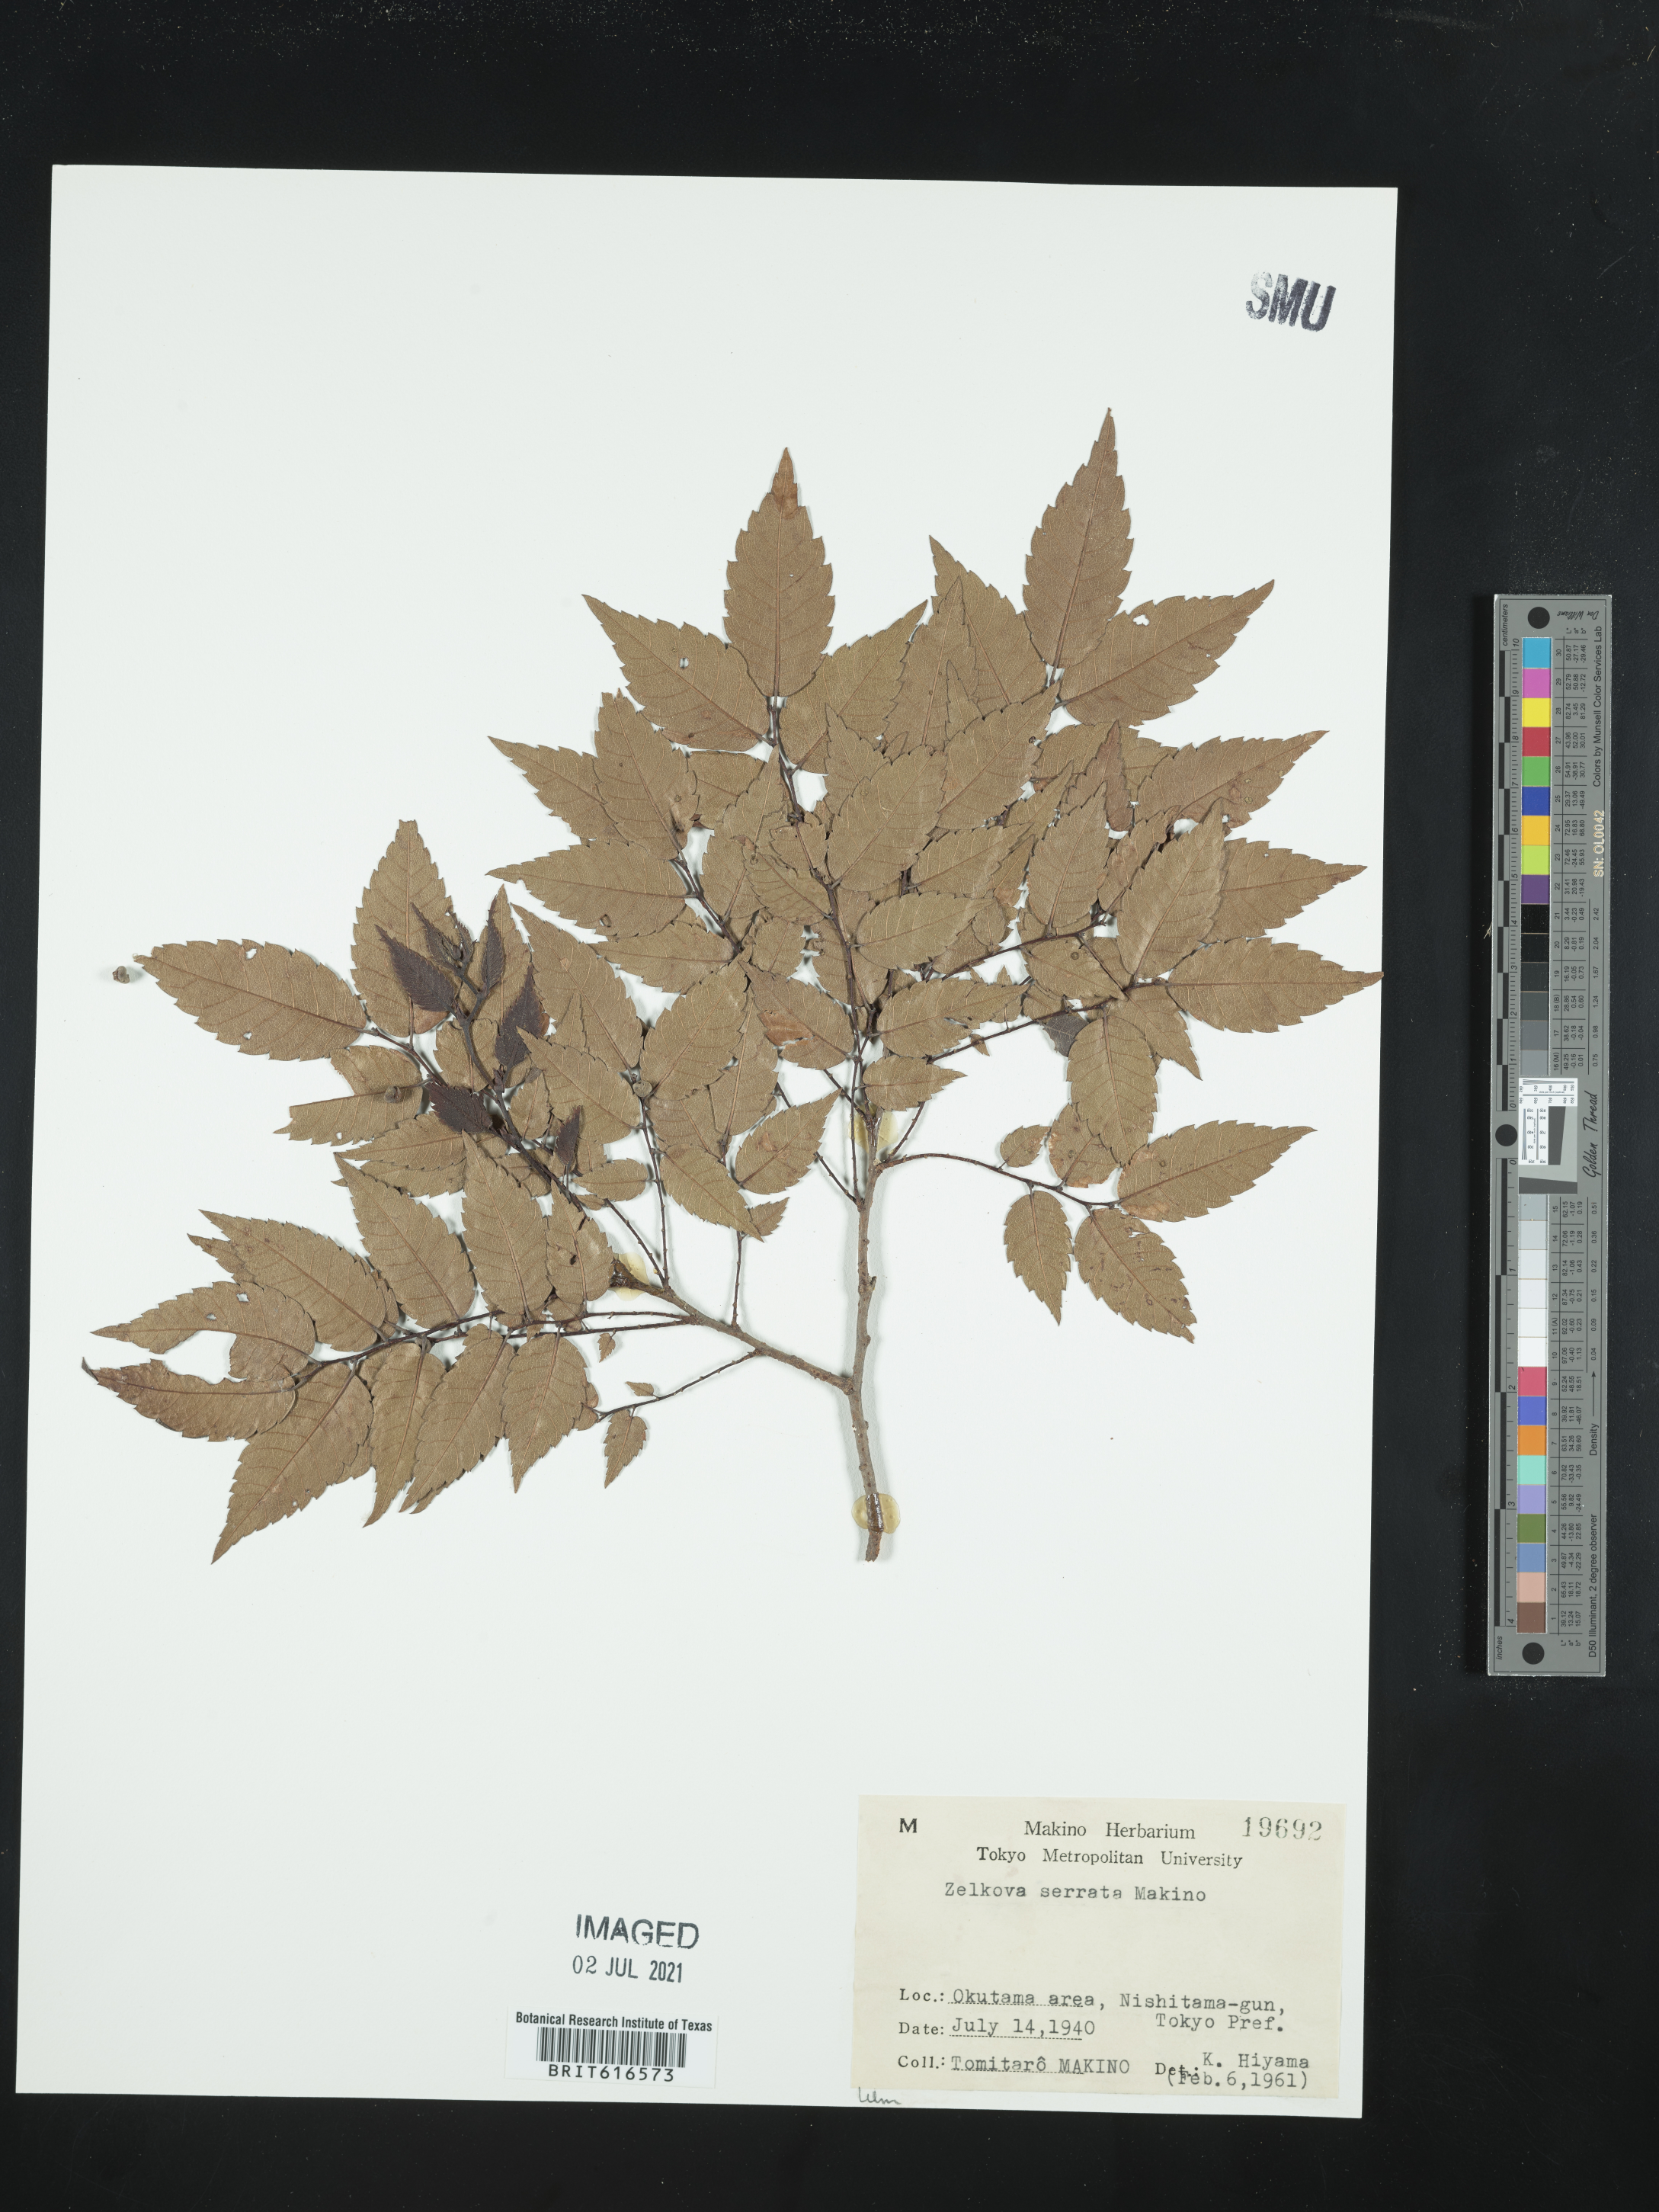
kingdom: Plantae
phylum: Tracheophyta
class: Magnoliopsida
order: Rosales
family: Ulmaceae
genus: Zelkova
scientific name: Zelkova serrata
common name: Japanese zelkova
